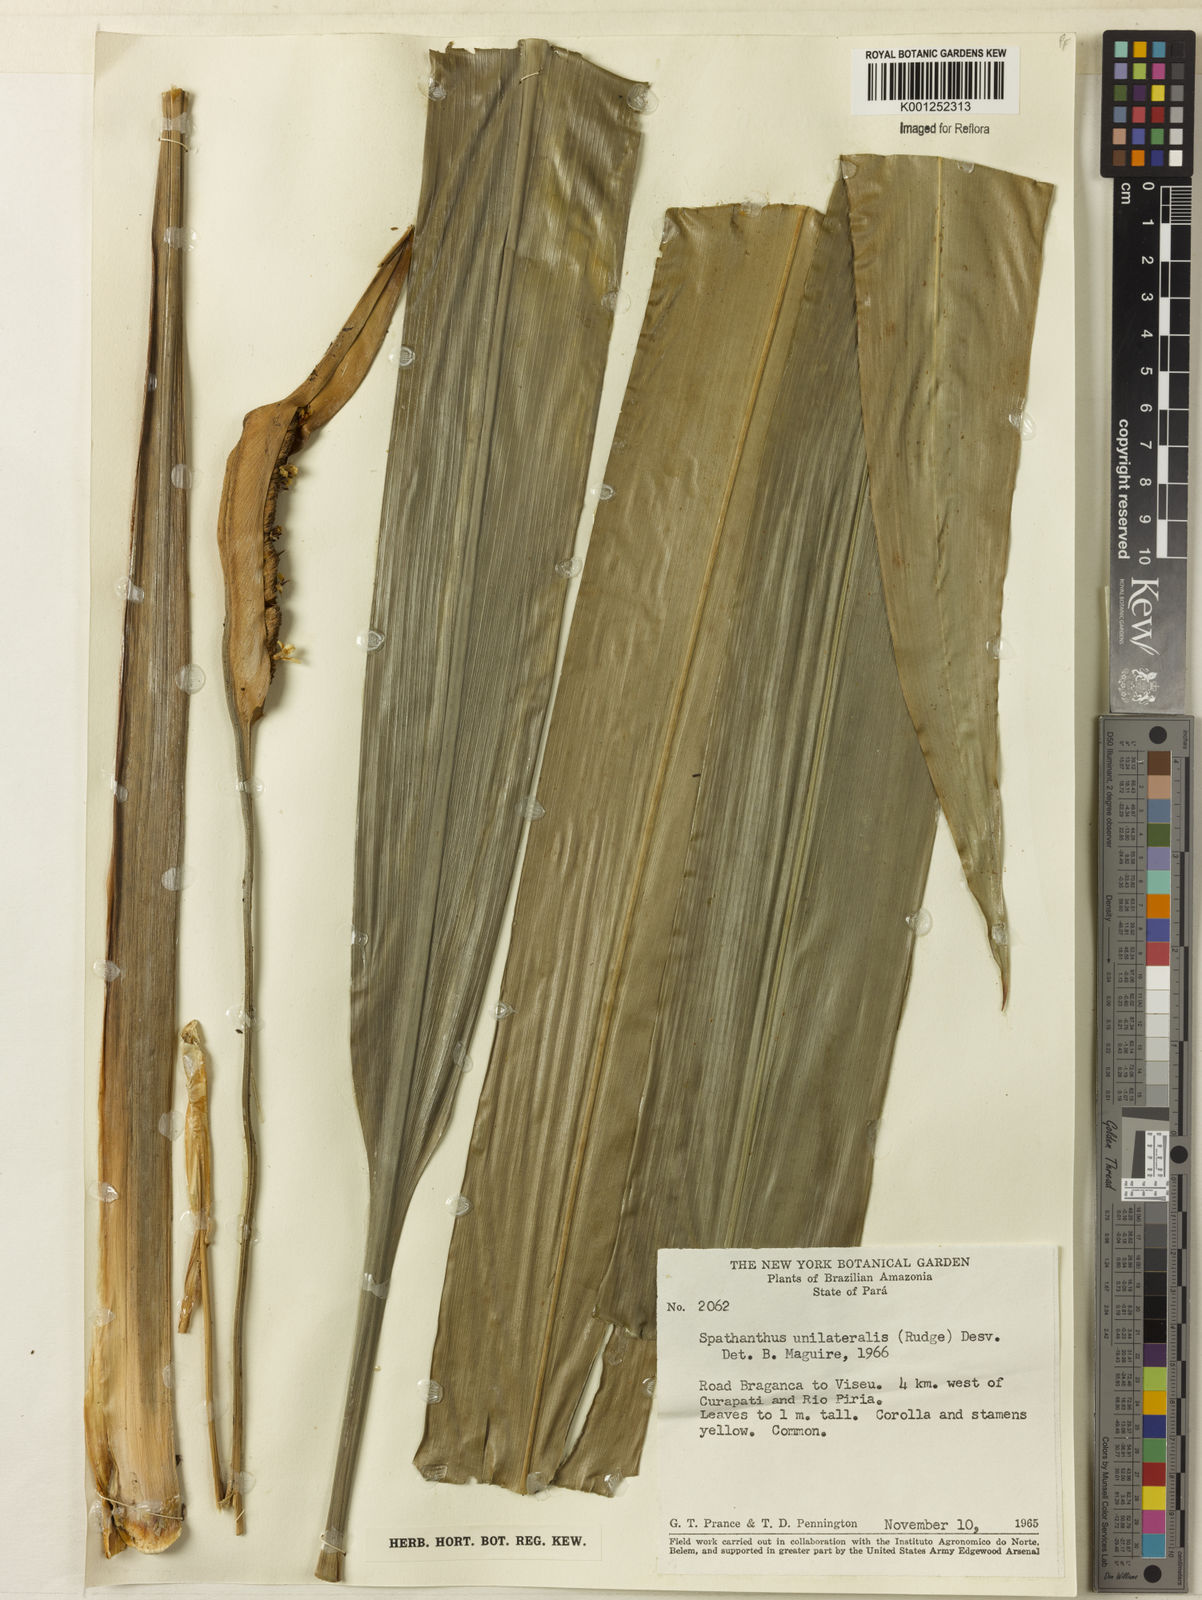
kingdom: Plantae
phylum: Tracheophyta
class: Liliopsida
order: Poales
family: Rapateaceae
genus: Spathanthus
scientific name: Spathanthus unilateralis
